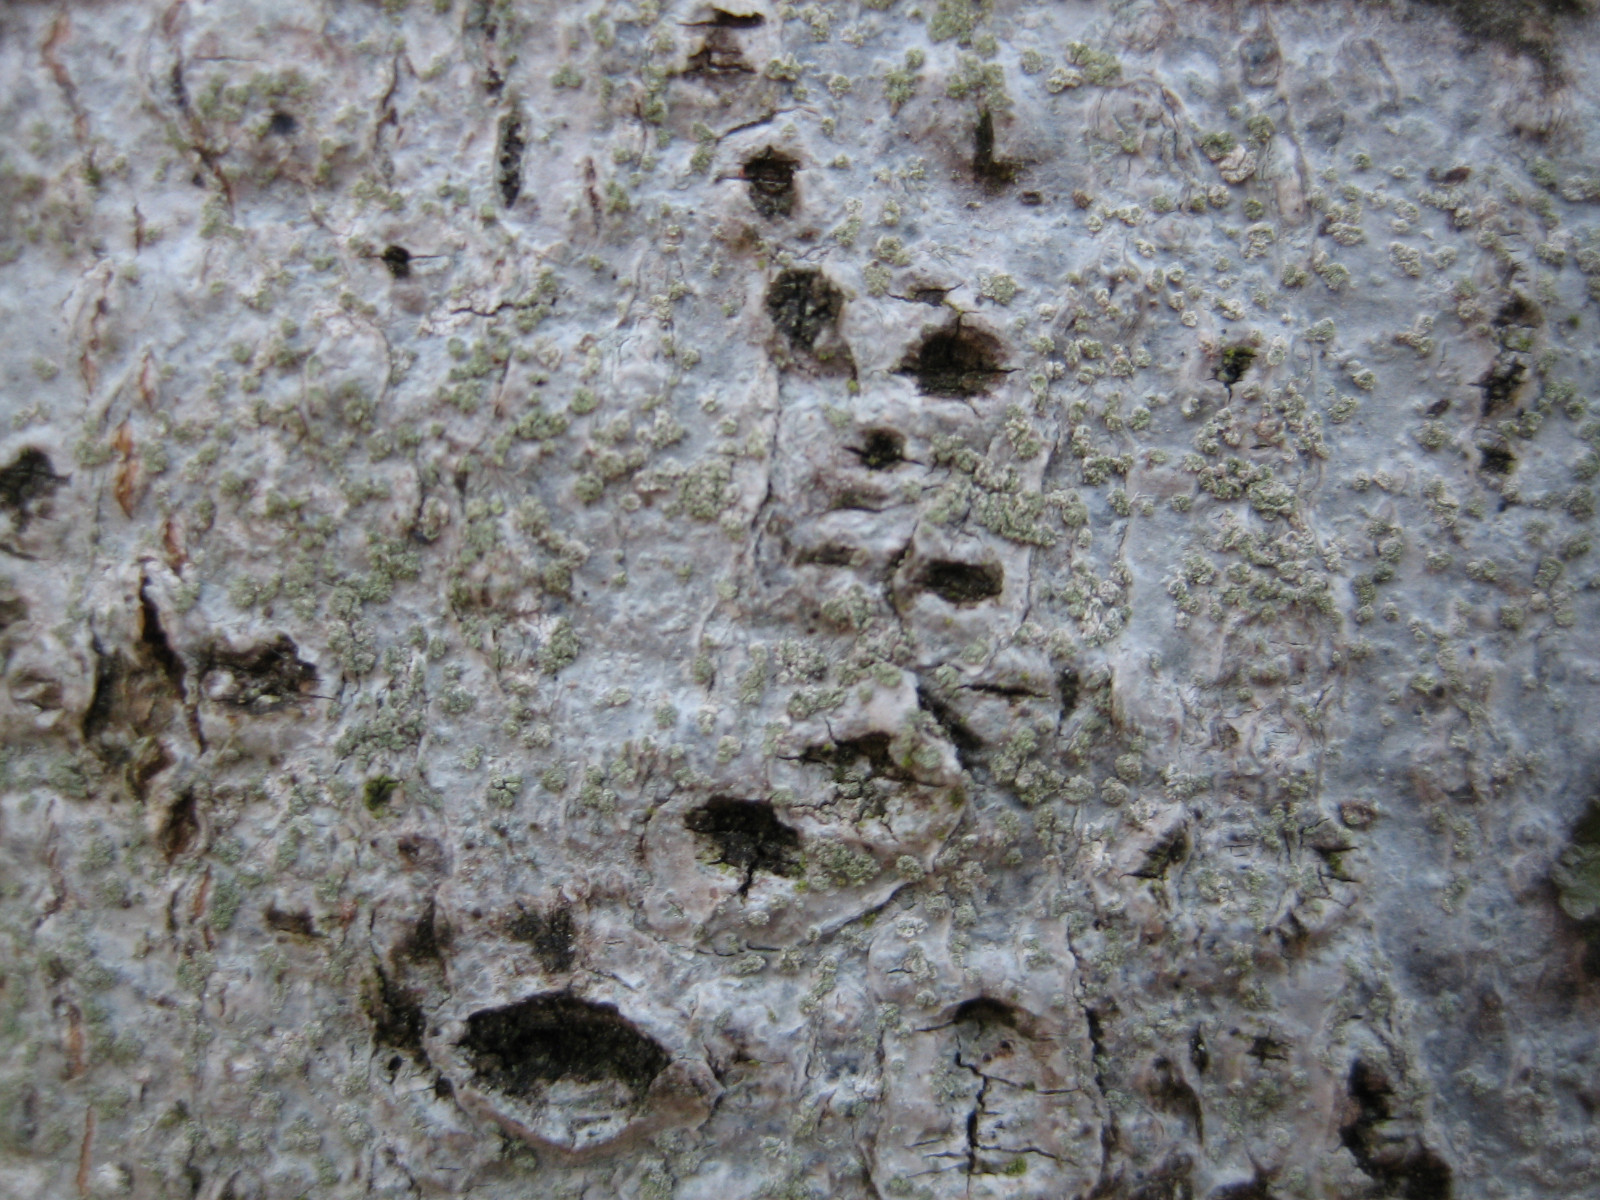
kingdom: Fungi
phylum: Ascomycota
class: Lecanoromycetes
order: Caliciales
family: Caliciaceae
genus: Buellia
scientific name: Buellia griseovirens
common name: grågrøn sortskivelav
